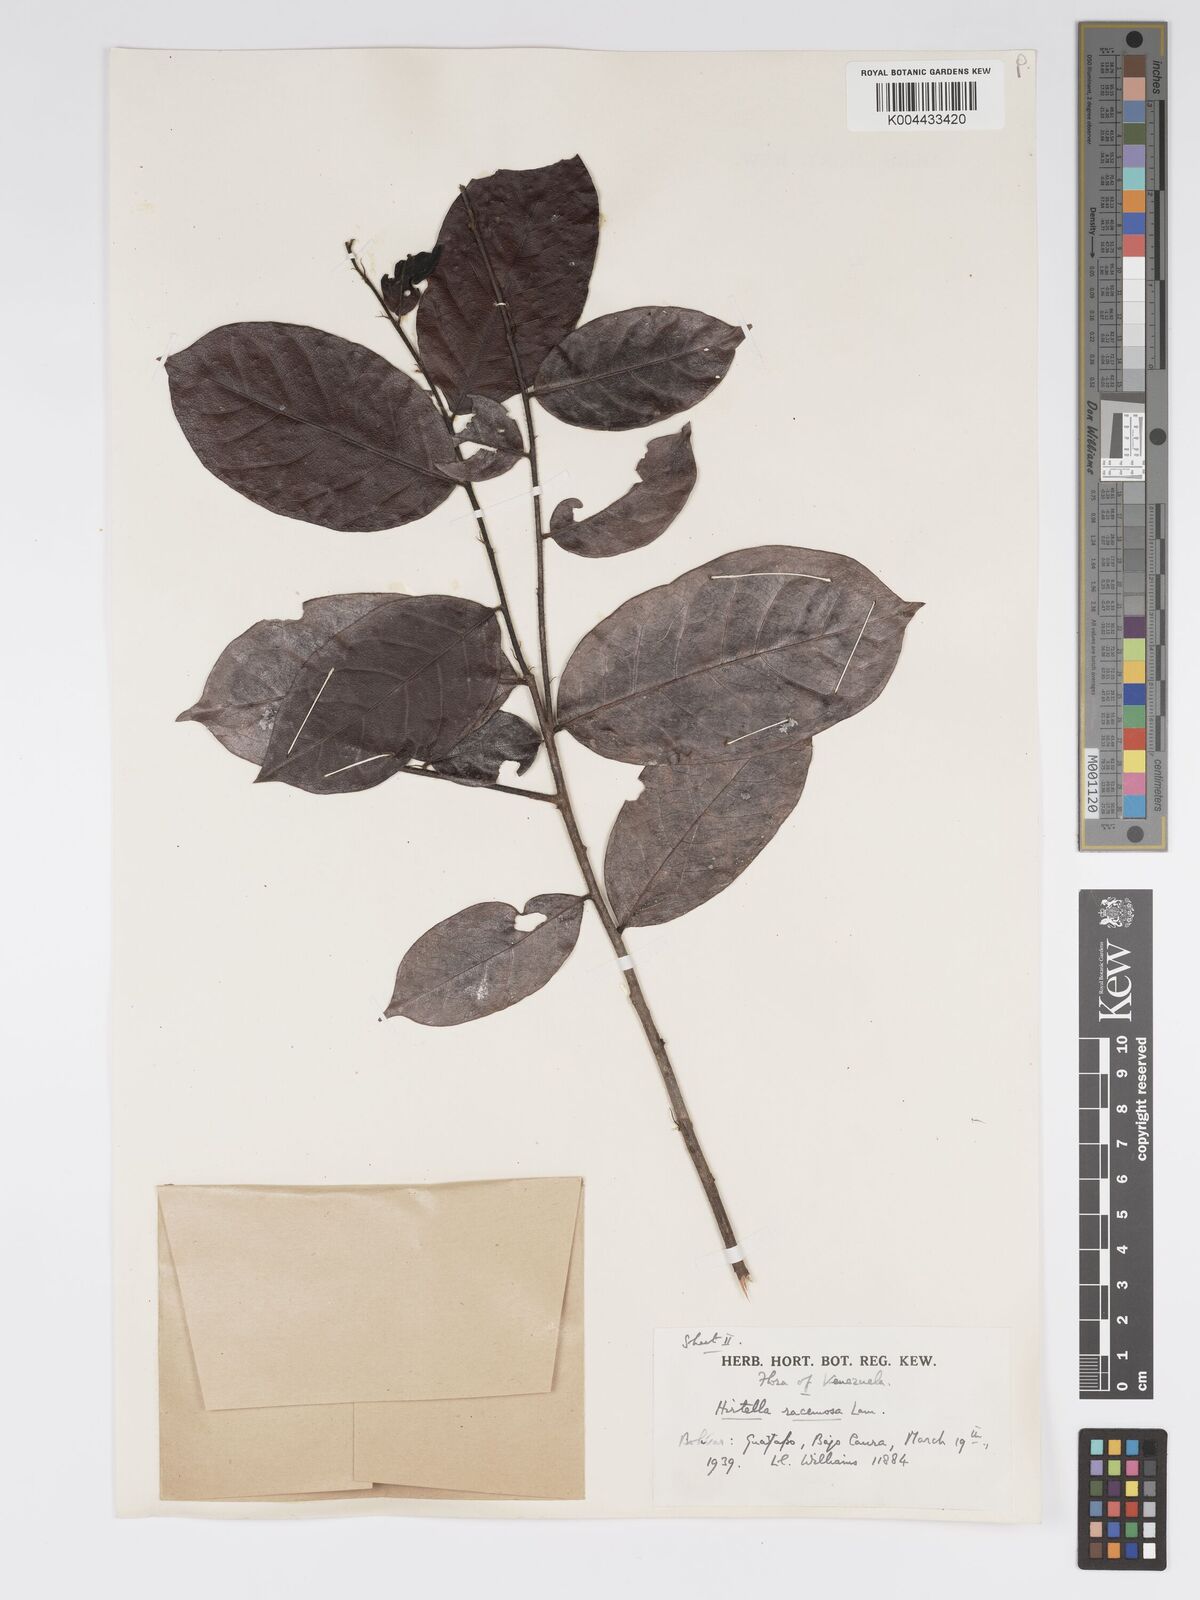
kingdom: Plantae
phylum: Tracheophyta
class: Magnoliopsida
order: Malpighiales
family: Chrysobalanaceae
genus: Hirtella
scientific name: Hirtella racemosa
